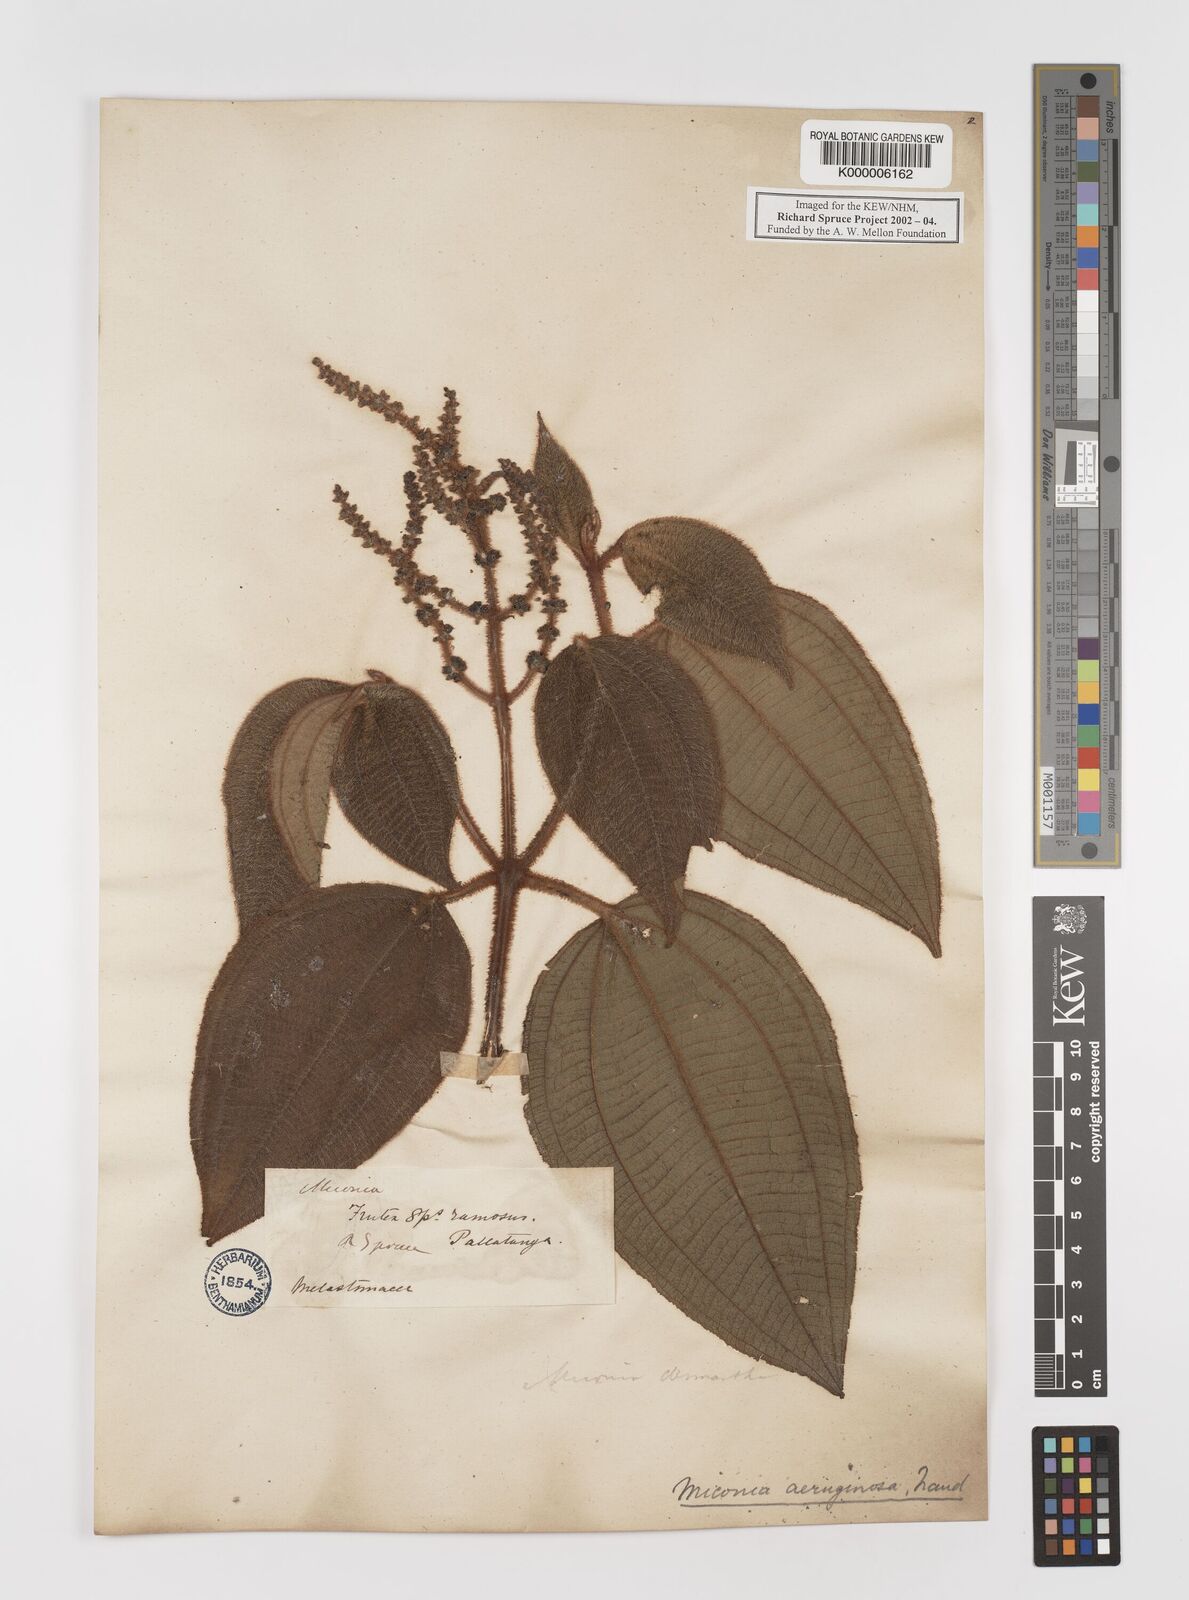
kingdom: Plantae
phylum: Tracheophyta
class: Magnoliopsida
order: Myrtales
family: Melastomataceae
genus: Miconia
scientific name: Miconia aeruginosa
